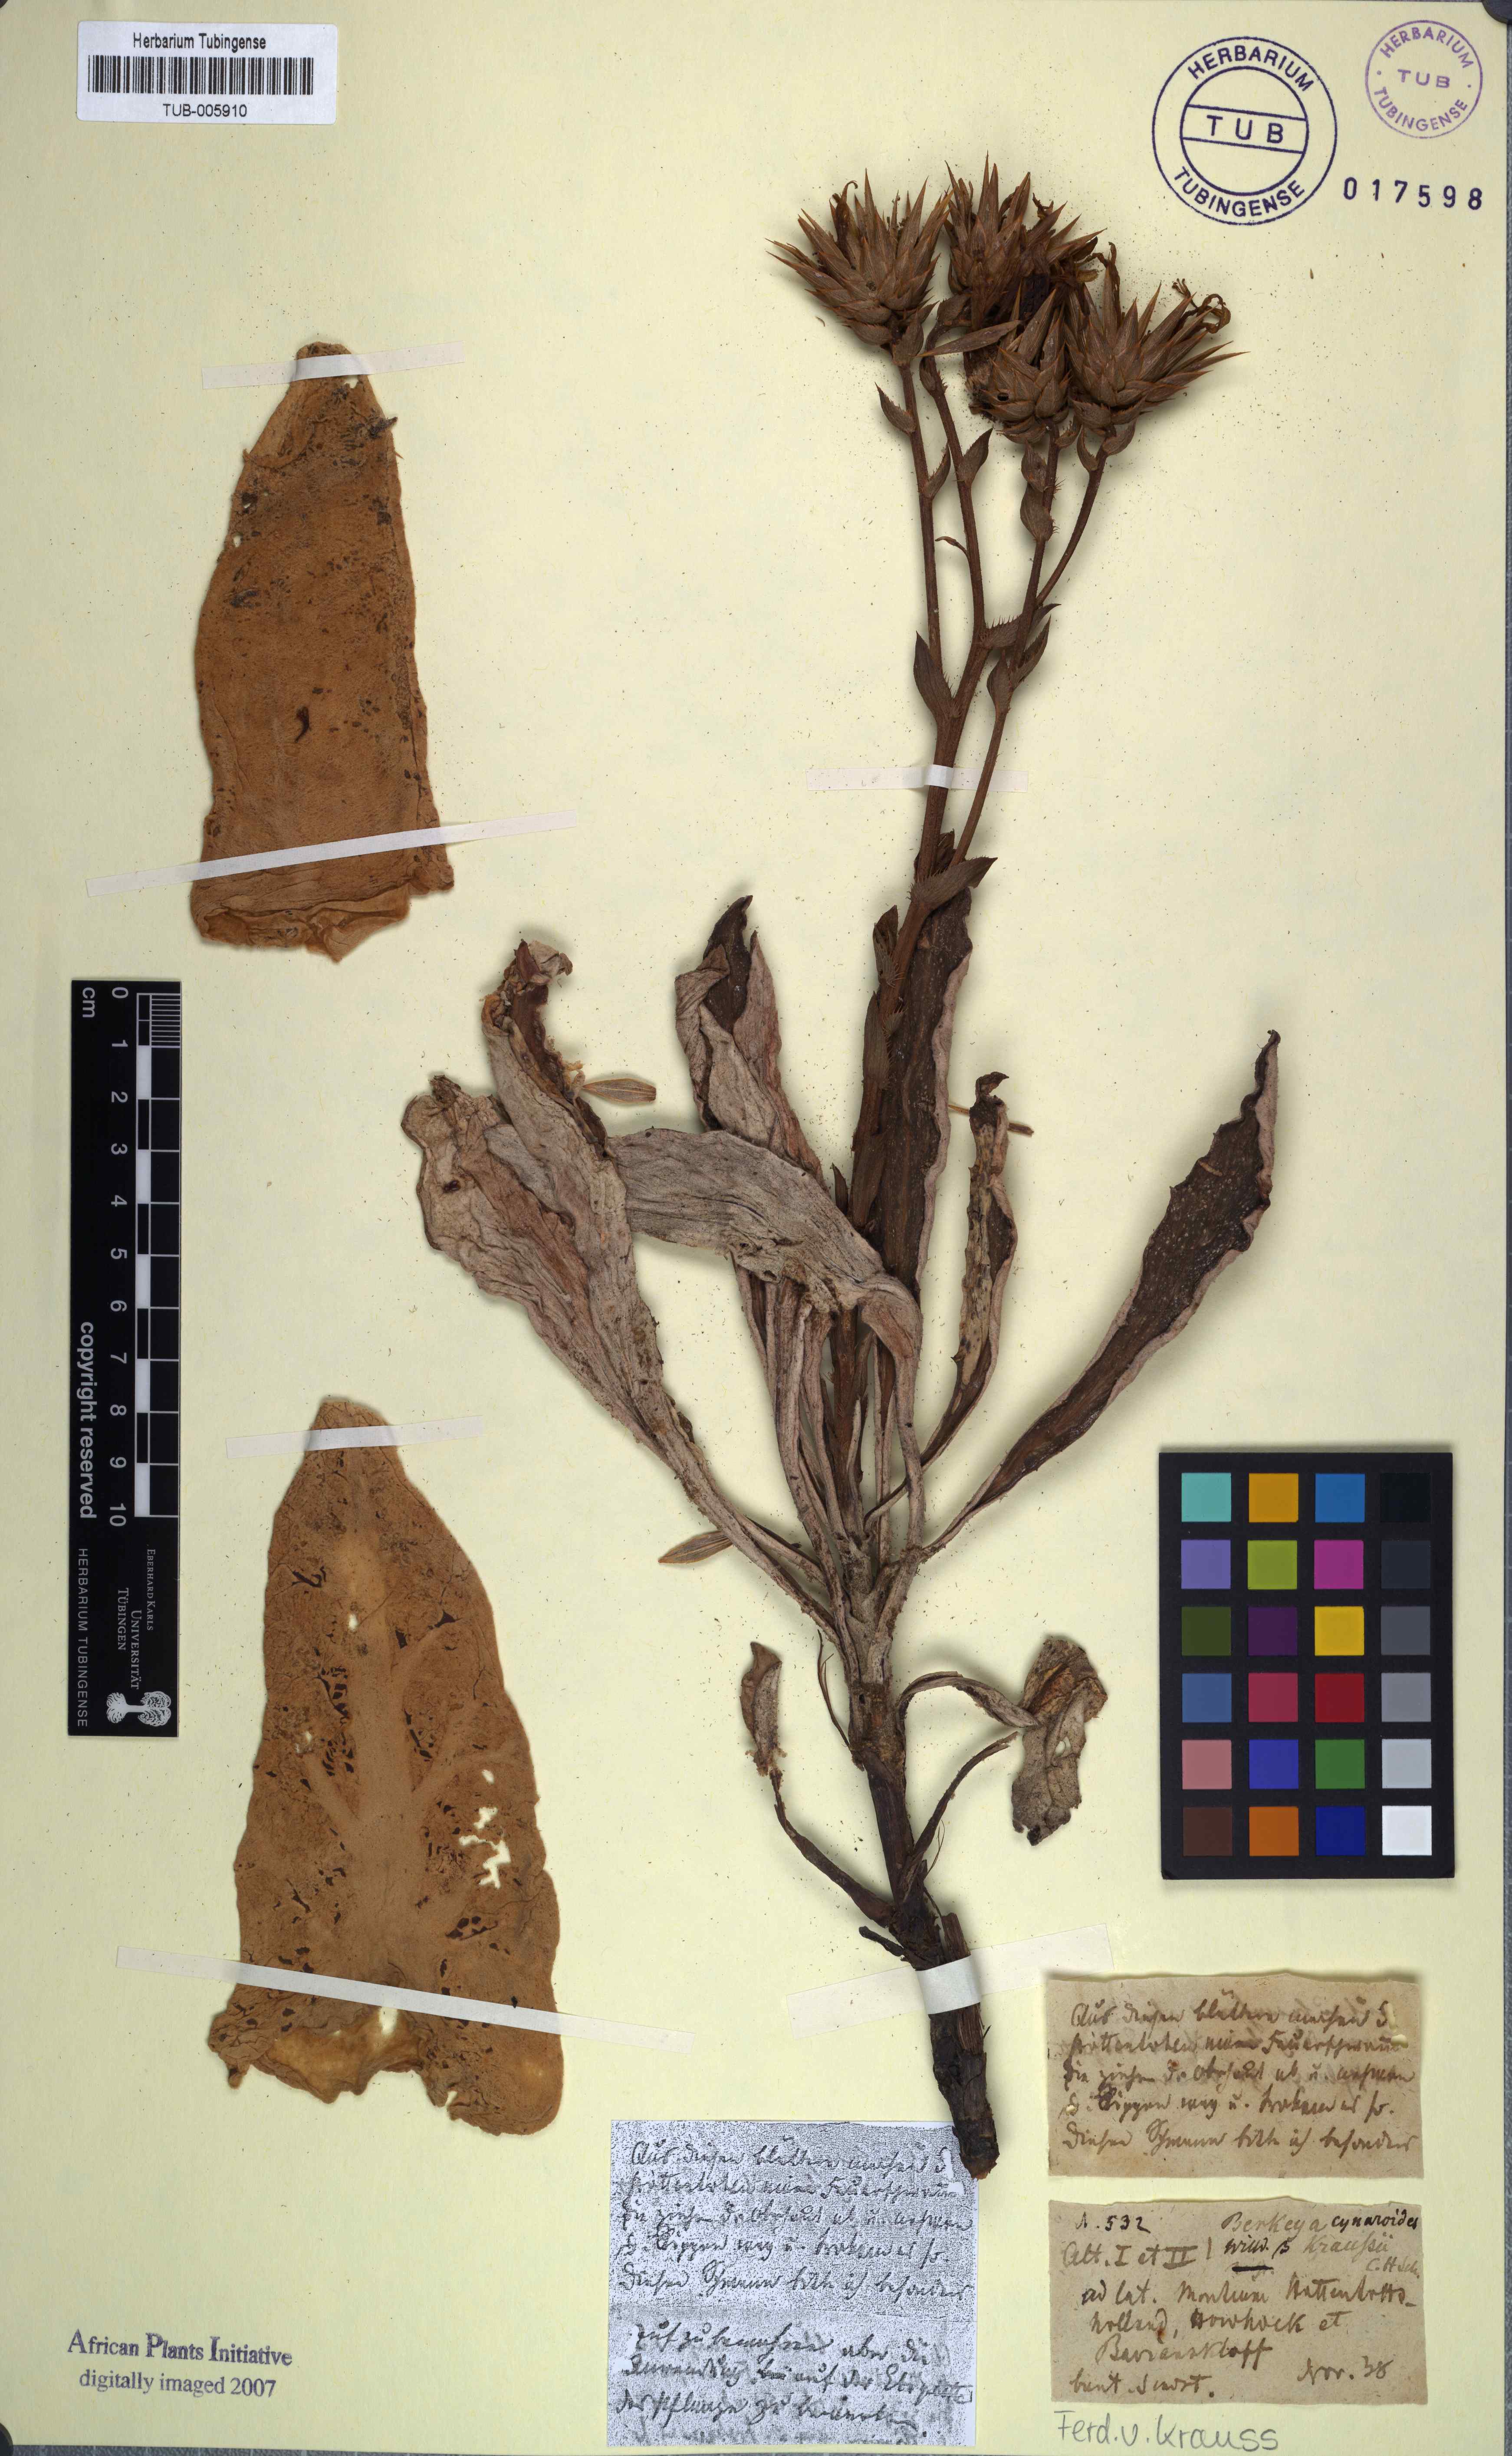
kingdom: Plantae
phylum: Tracheophyta
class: Magnoliopsida
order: Asterales
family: Asteraceae
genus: Berkheya
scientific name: Berkheya herbacea
